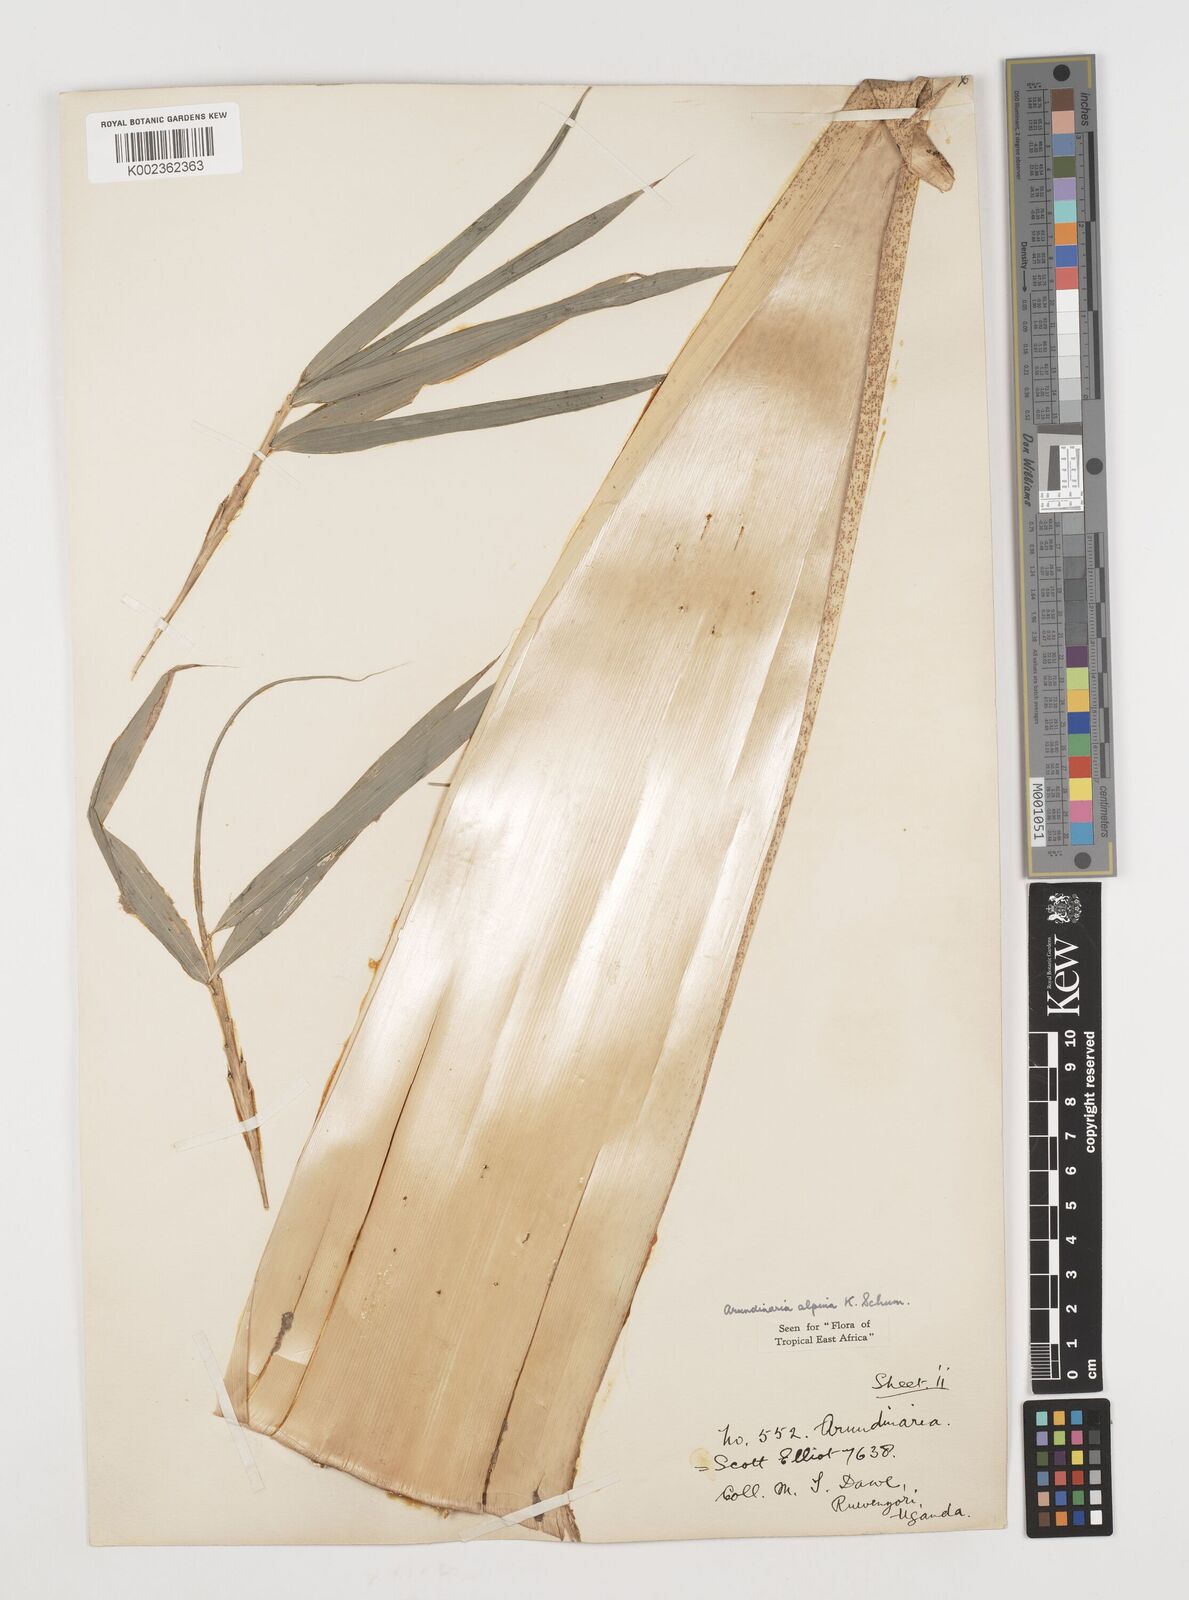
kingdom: Plantae
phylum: Tracheophyta
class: Liliopsida
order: Poales
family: Poaceae
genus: Oldeania
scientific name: Oldeania alpina
